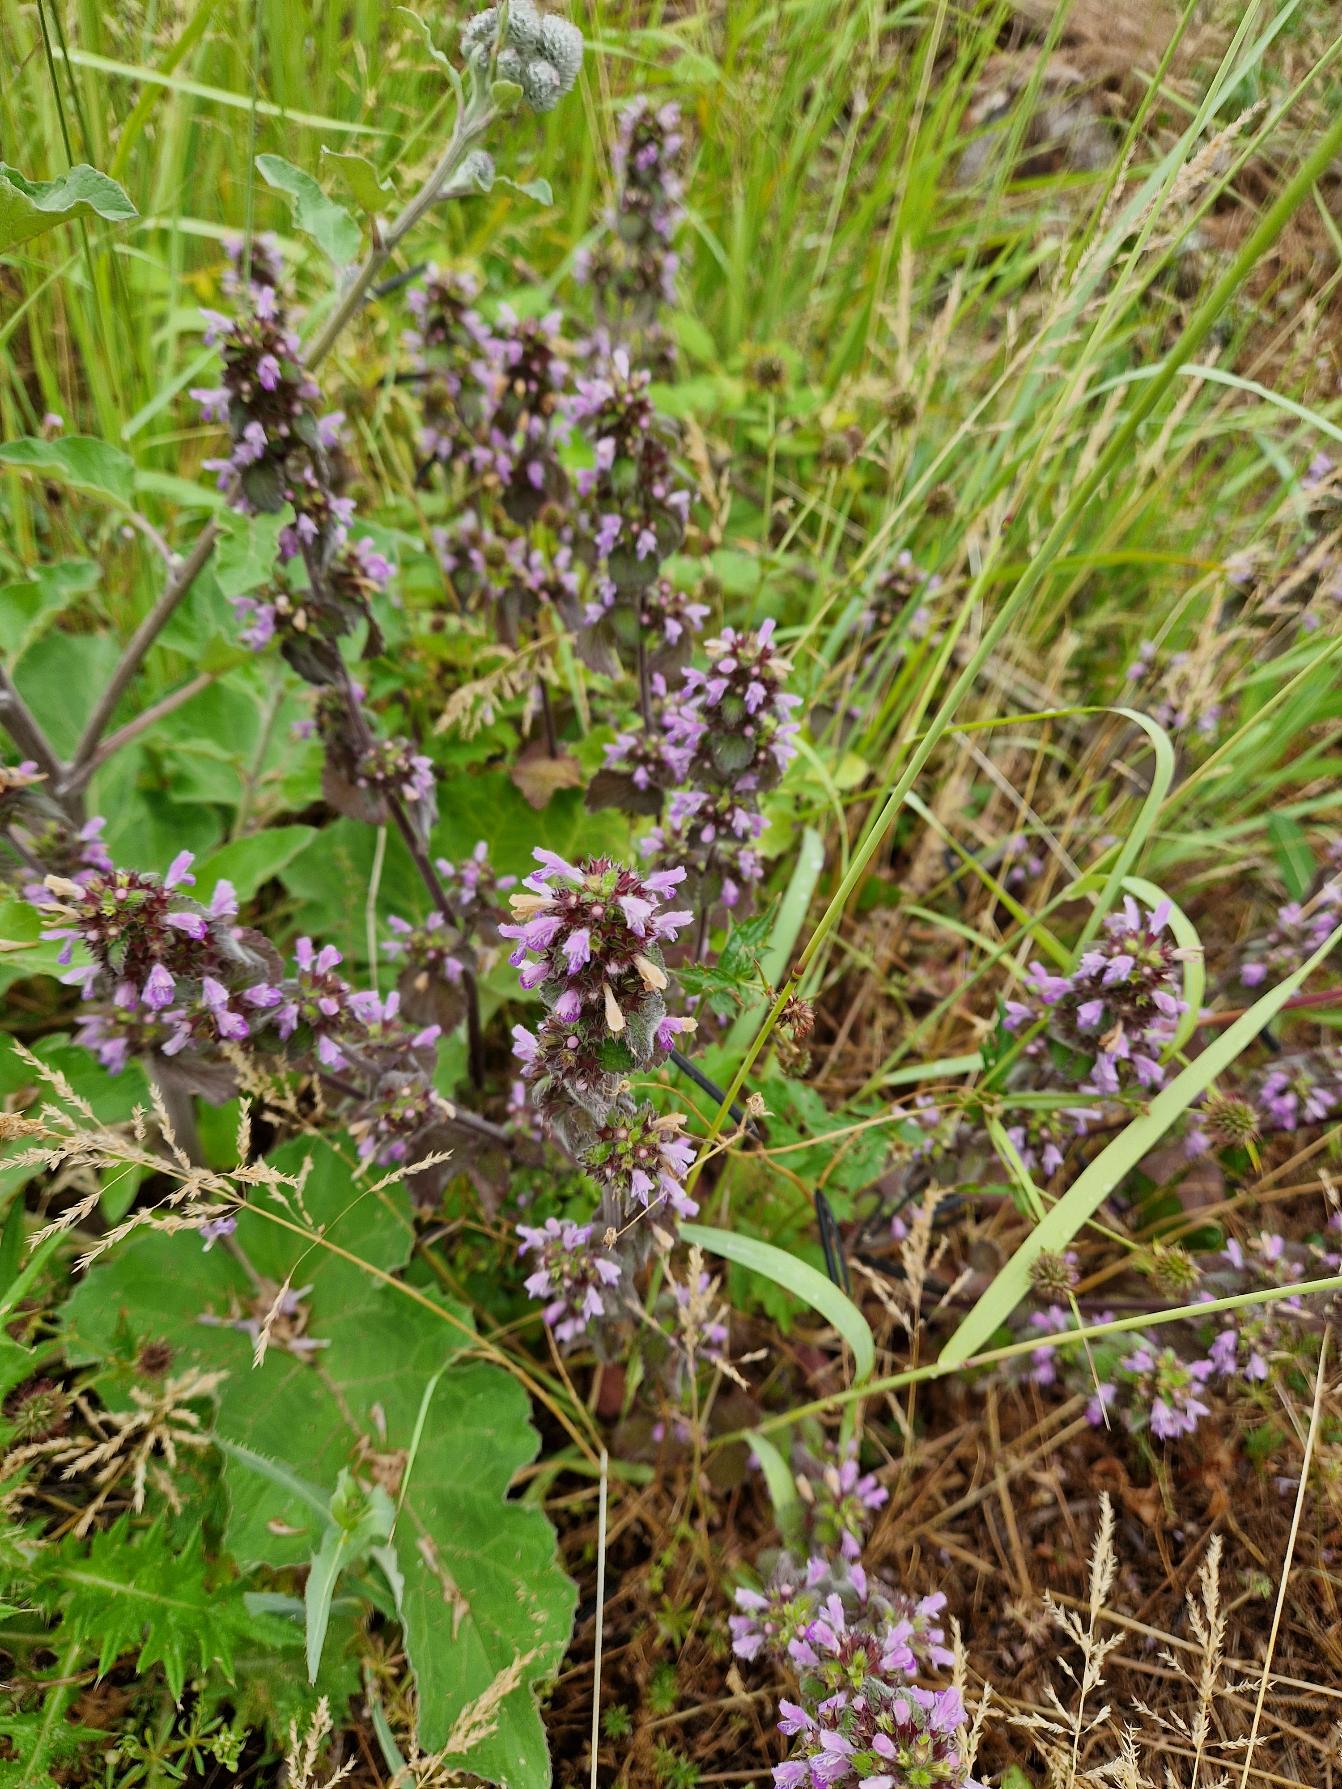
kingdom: Plantae
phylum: Tracheophyta
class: Magnoliopsida
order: Lamiales
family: Lamiaceae
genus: Ballota
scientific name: Ballota nigra
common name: Tandbæger
